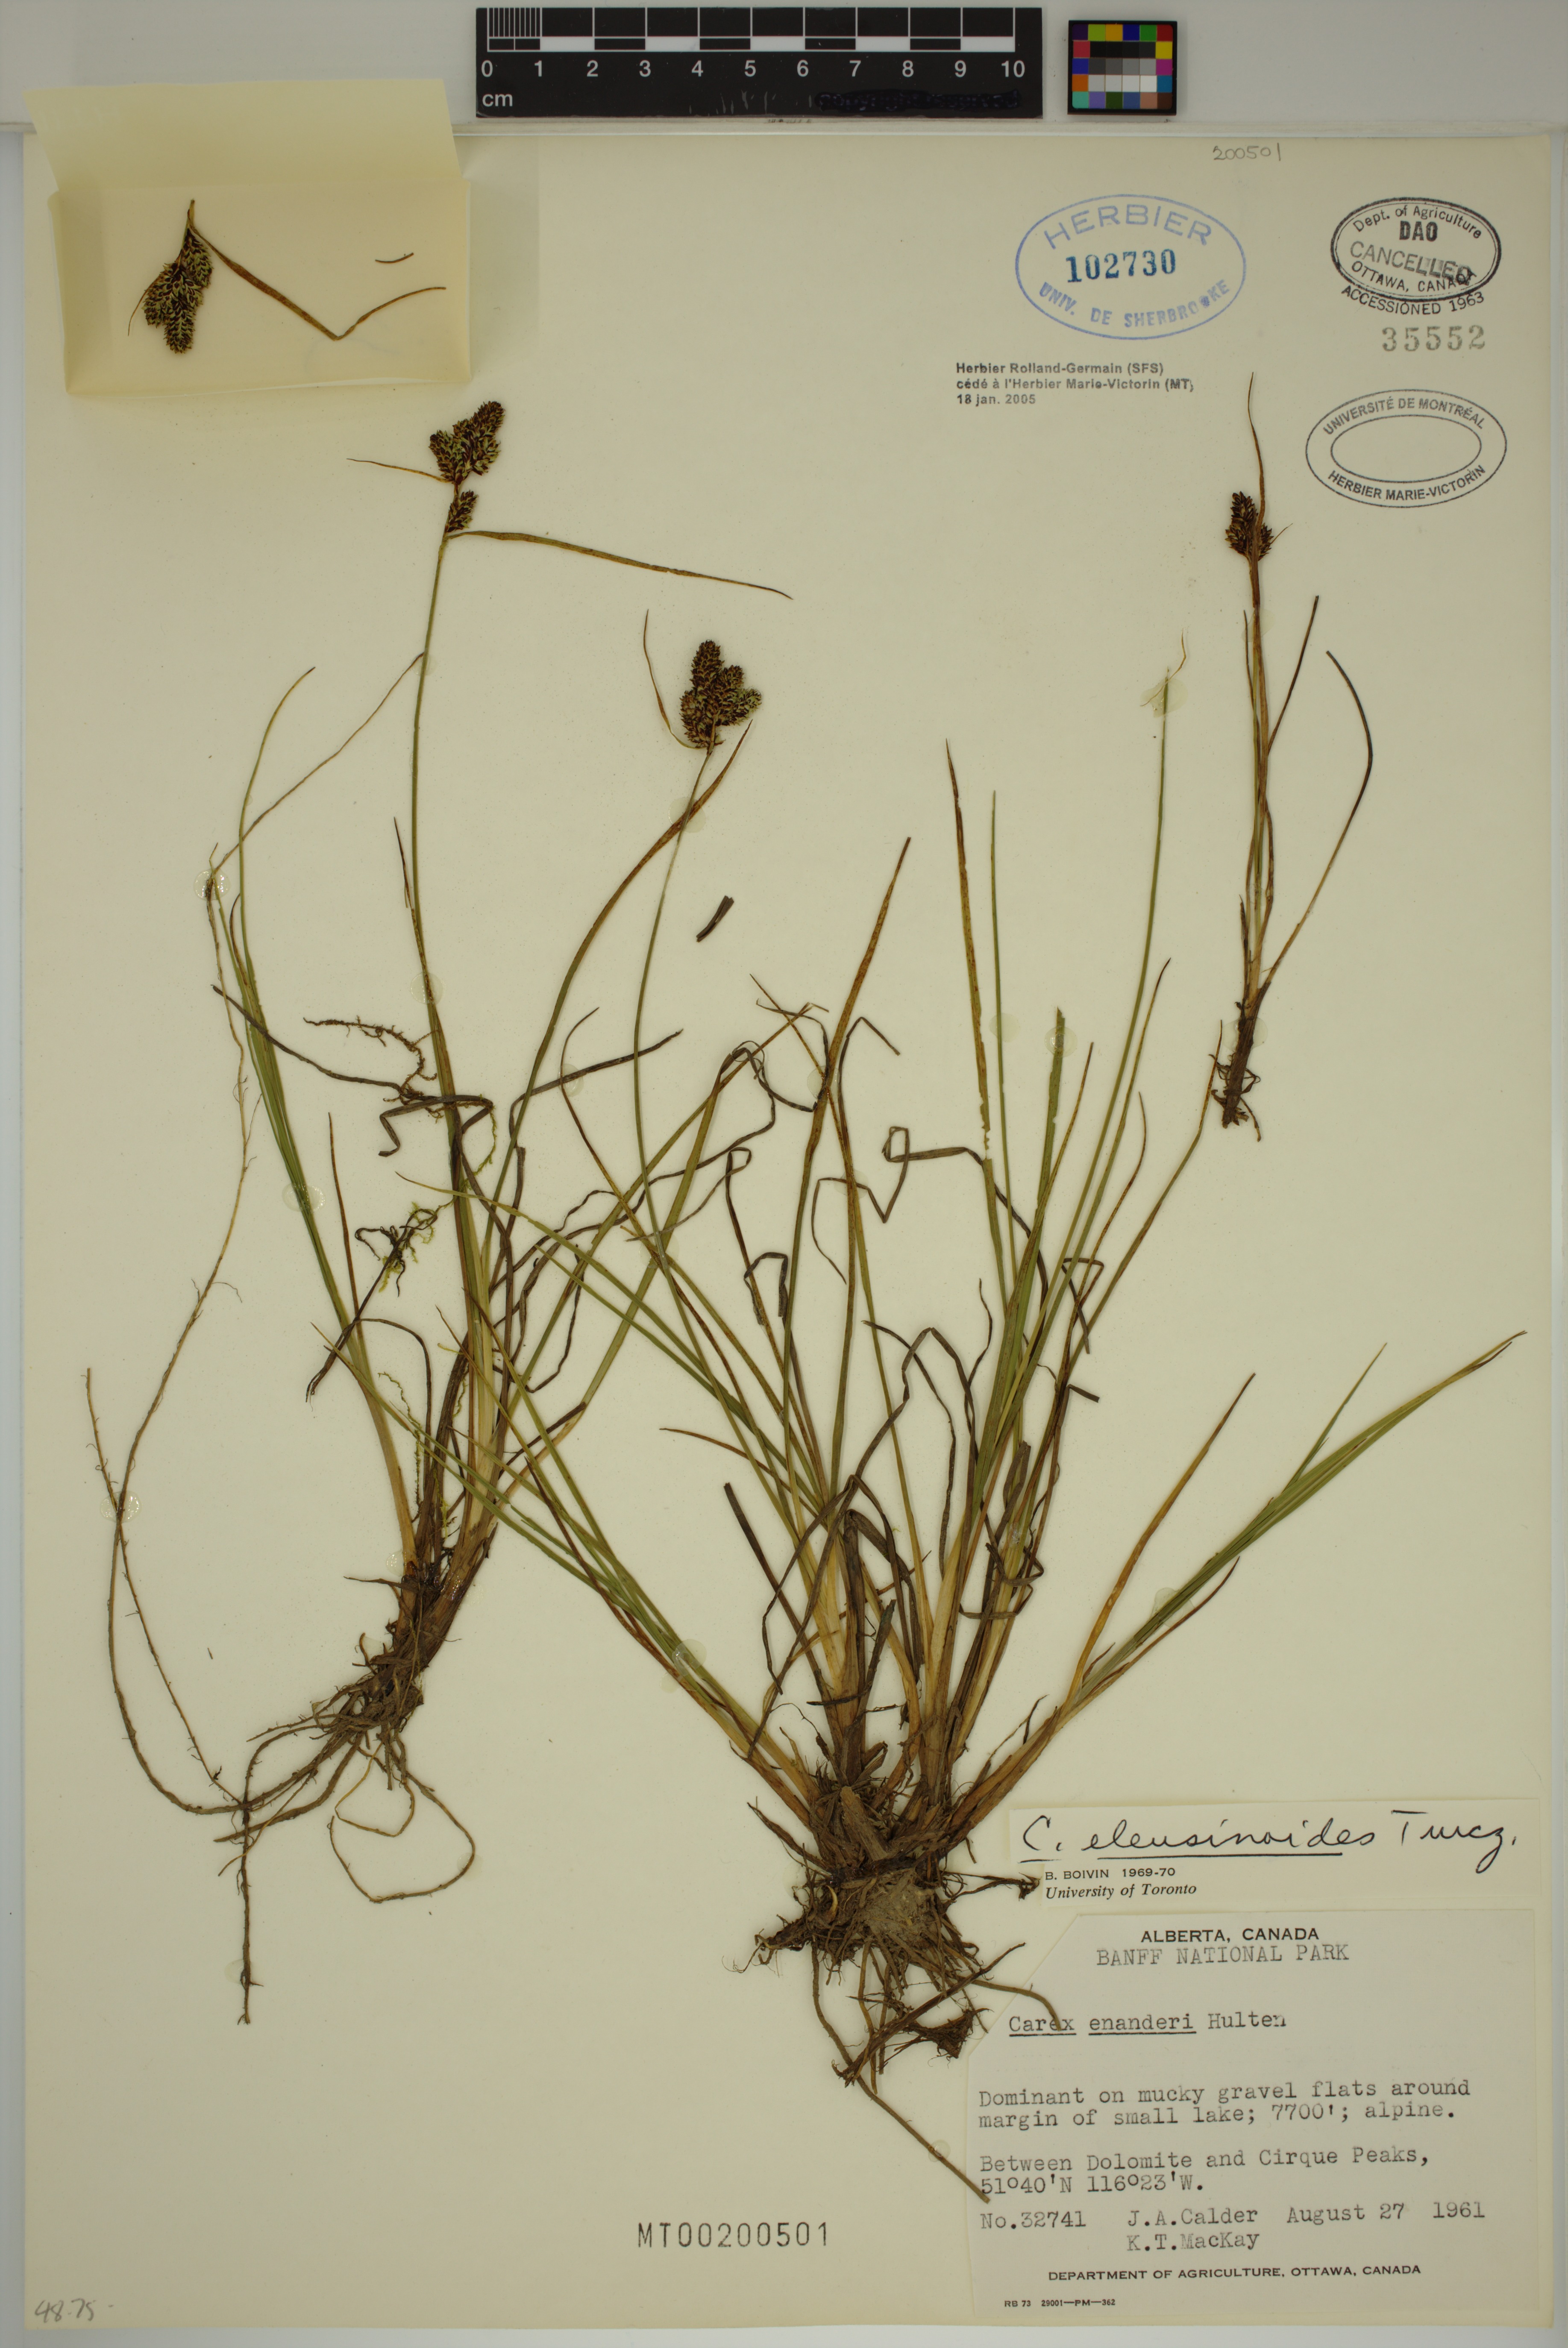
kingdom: Plantae
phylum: Tracheophyta
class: Liliopsida
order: Poales
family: Cyperaceae
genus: Carex
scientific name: Carex eleusinoides
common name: Goosegrass sedge
